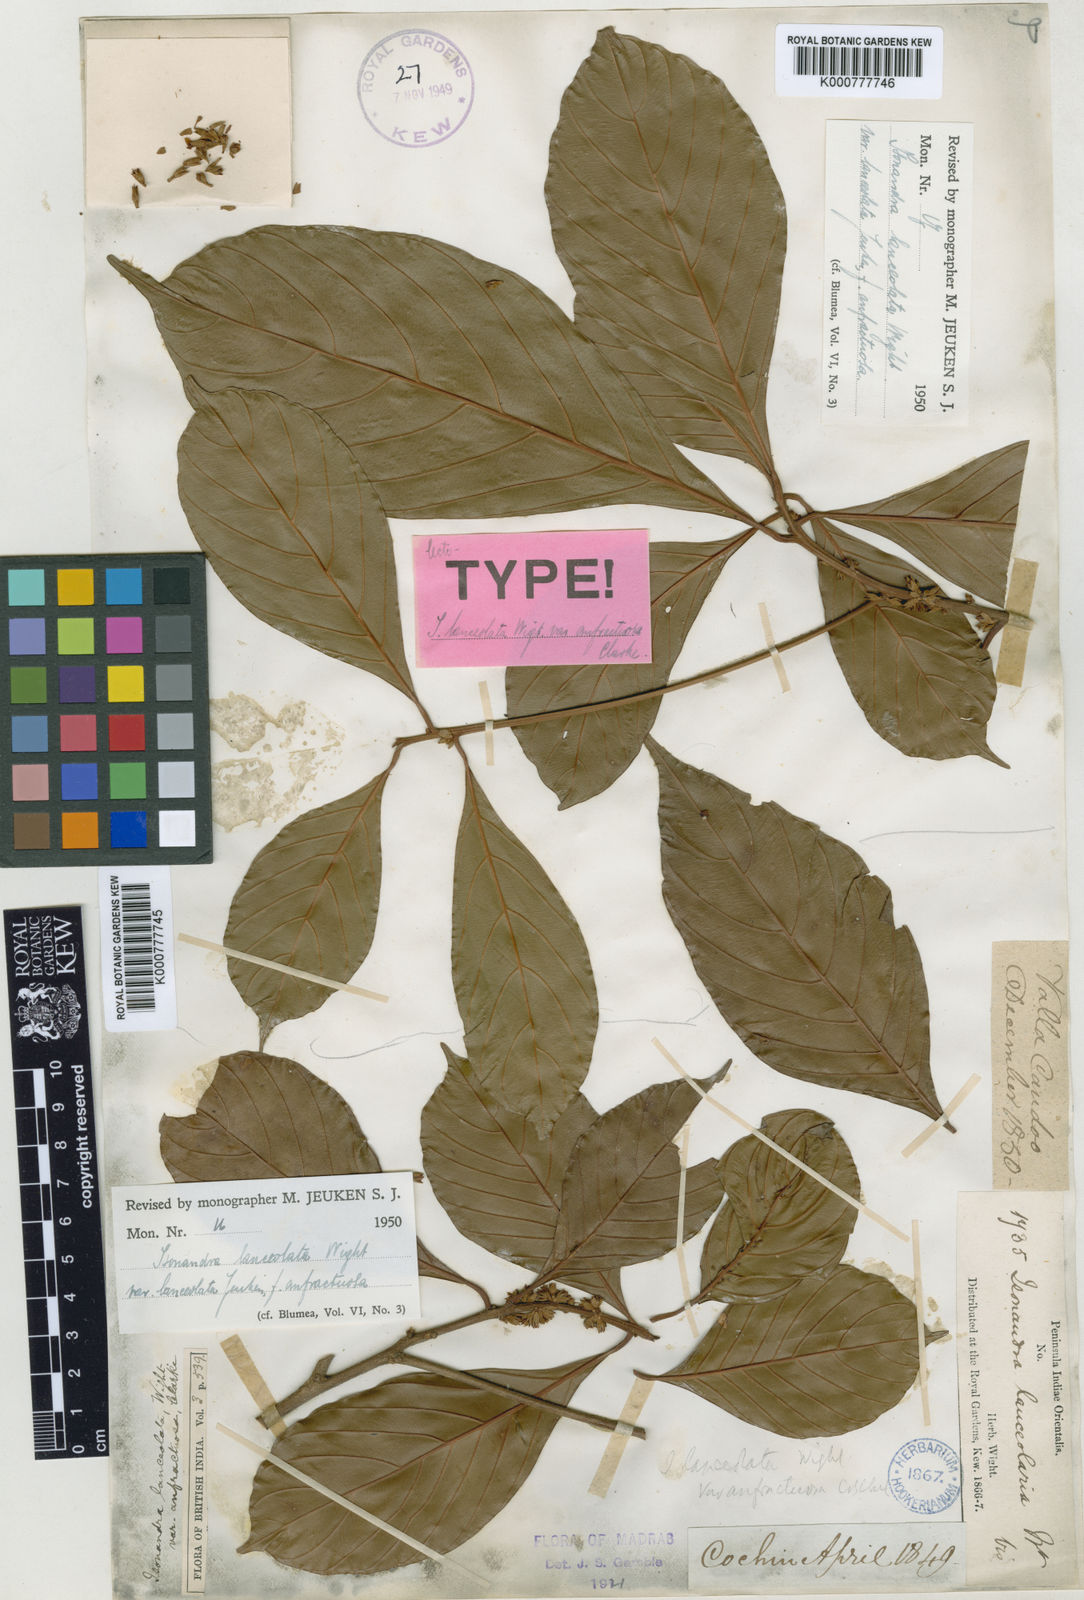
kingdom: Plantae
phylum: Tracheophyta
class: Magnoliopsida
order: Ericales
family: Sapotaceae
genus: Isonandra
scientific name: Isonandra lanceolata
